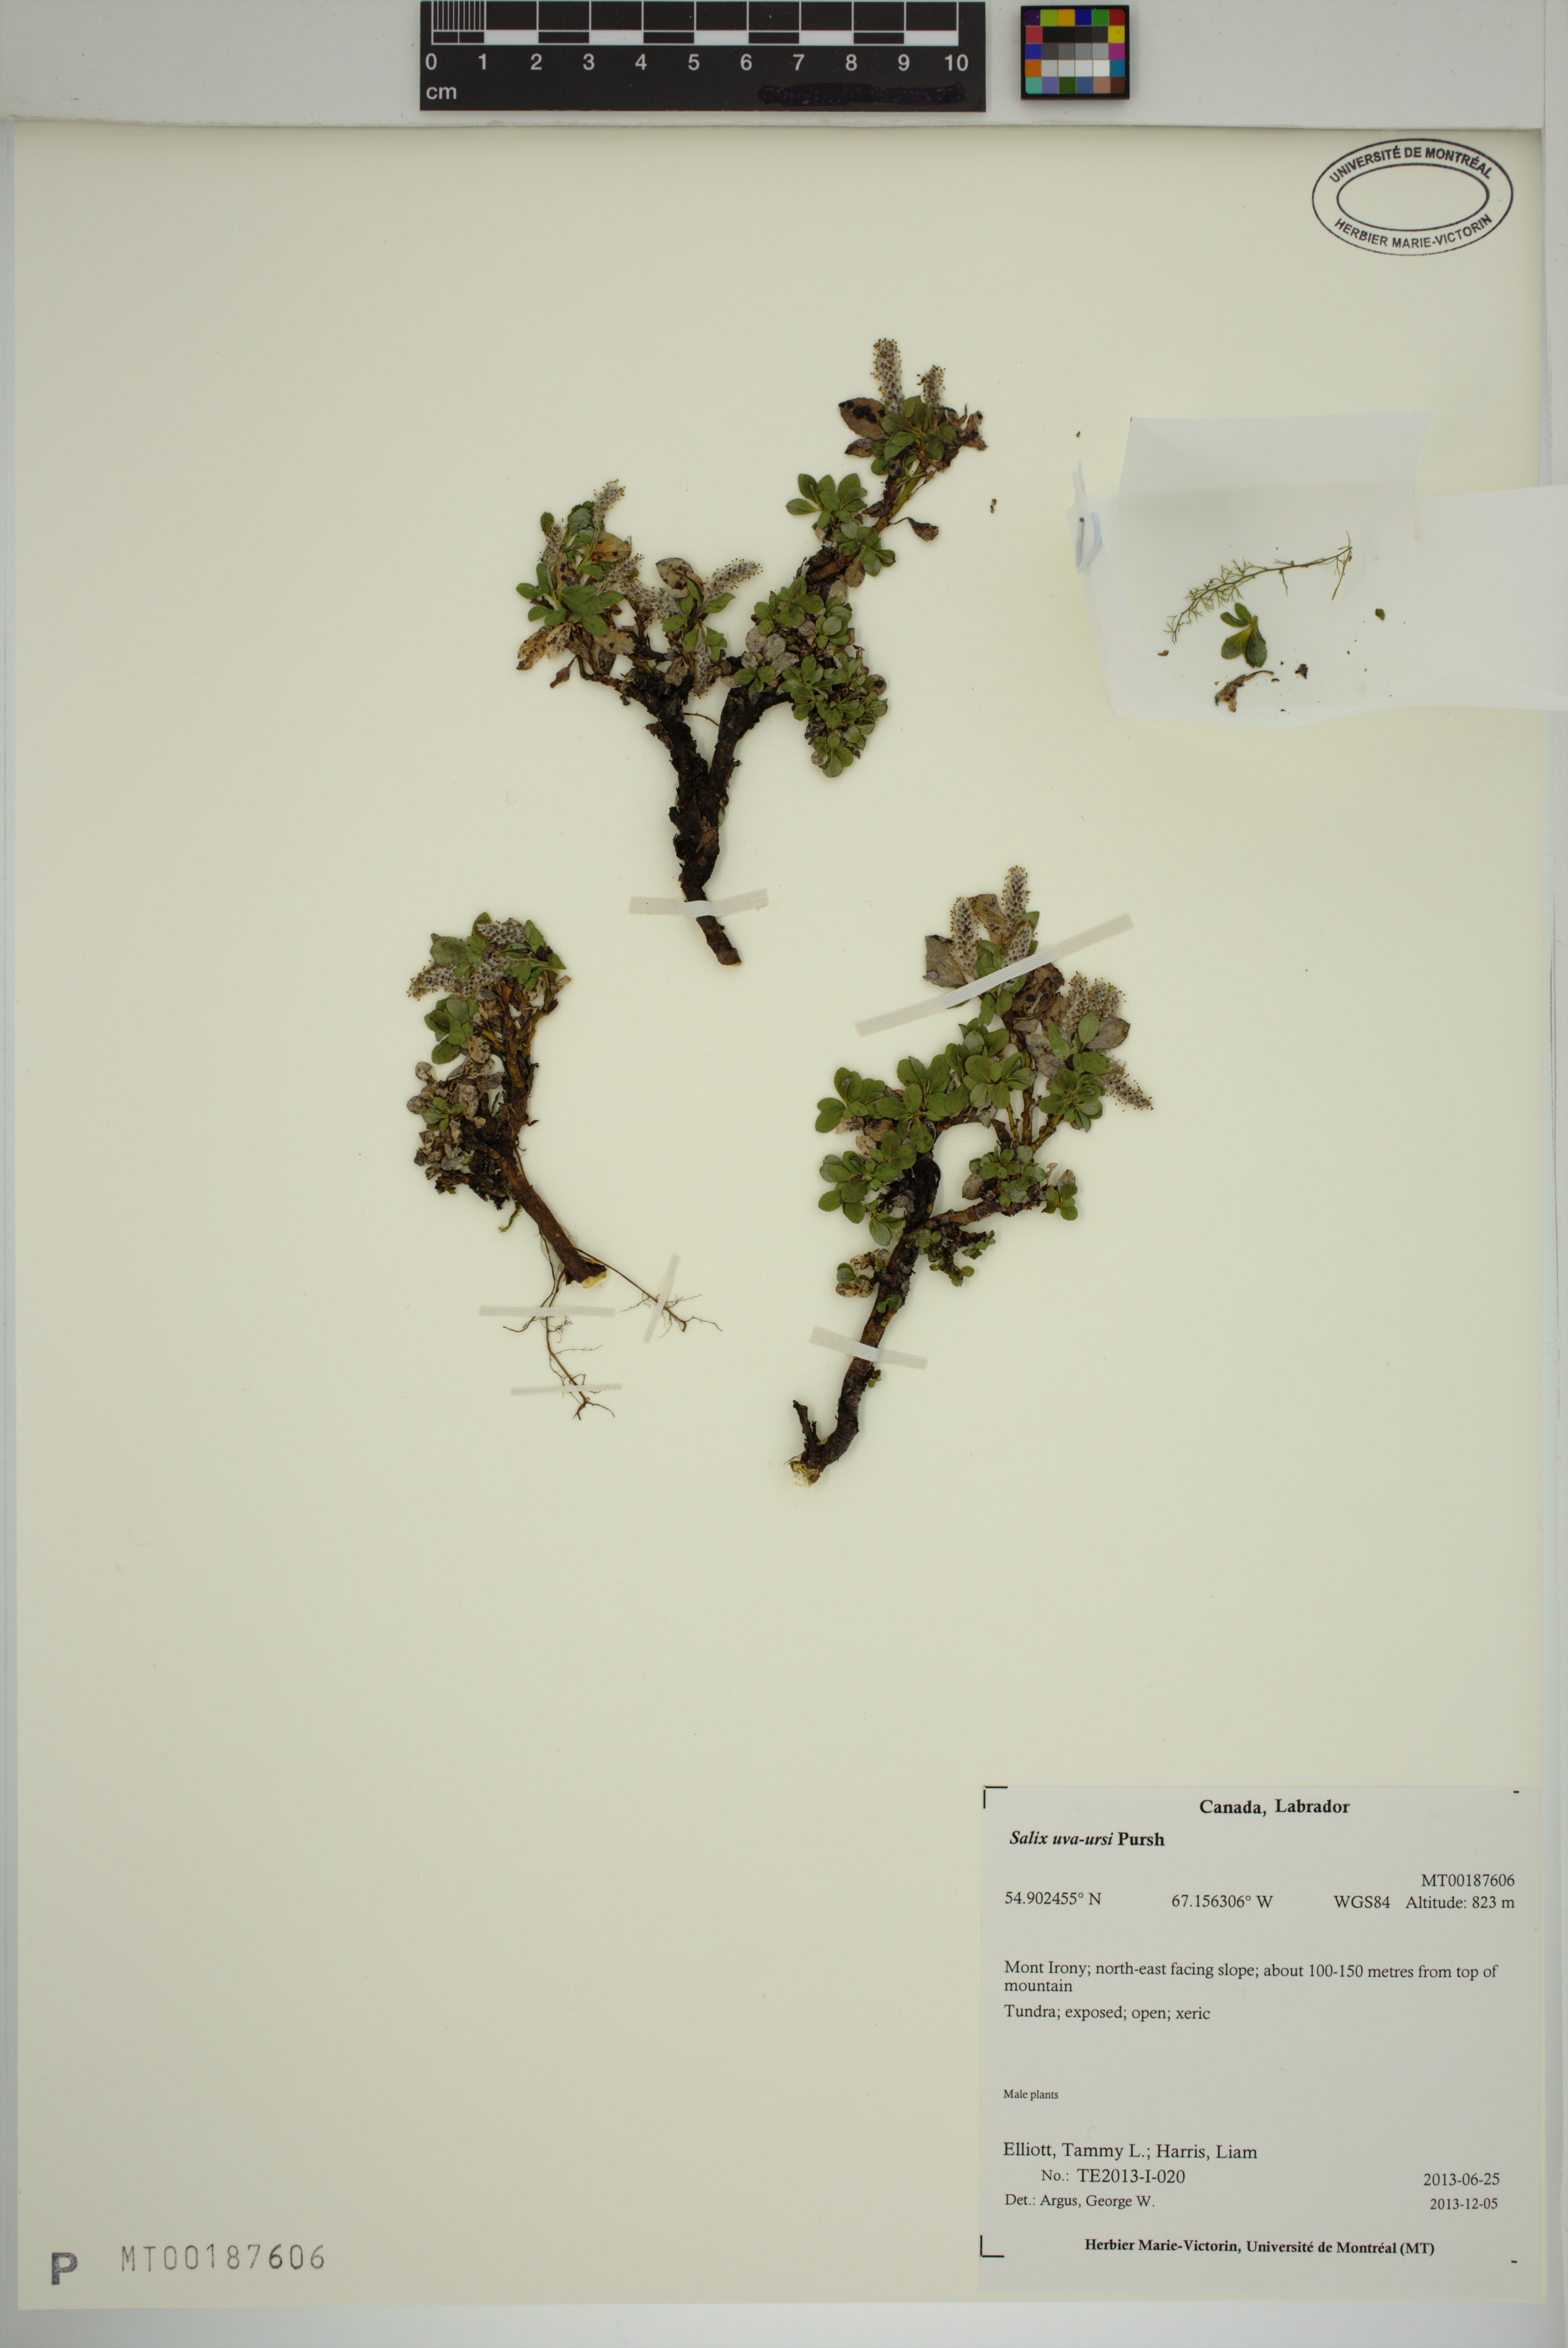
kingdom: Plantae
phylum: Tracheophyta
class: Magnoliopsida
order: Malpighiales
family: Salicaceae
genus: Salix
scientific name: Salix uva-ursi
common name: Bearberry willow
